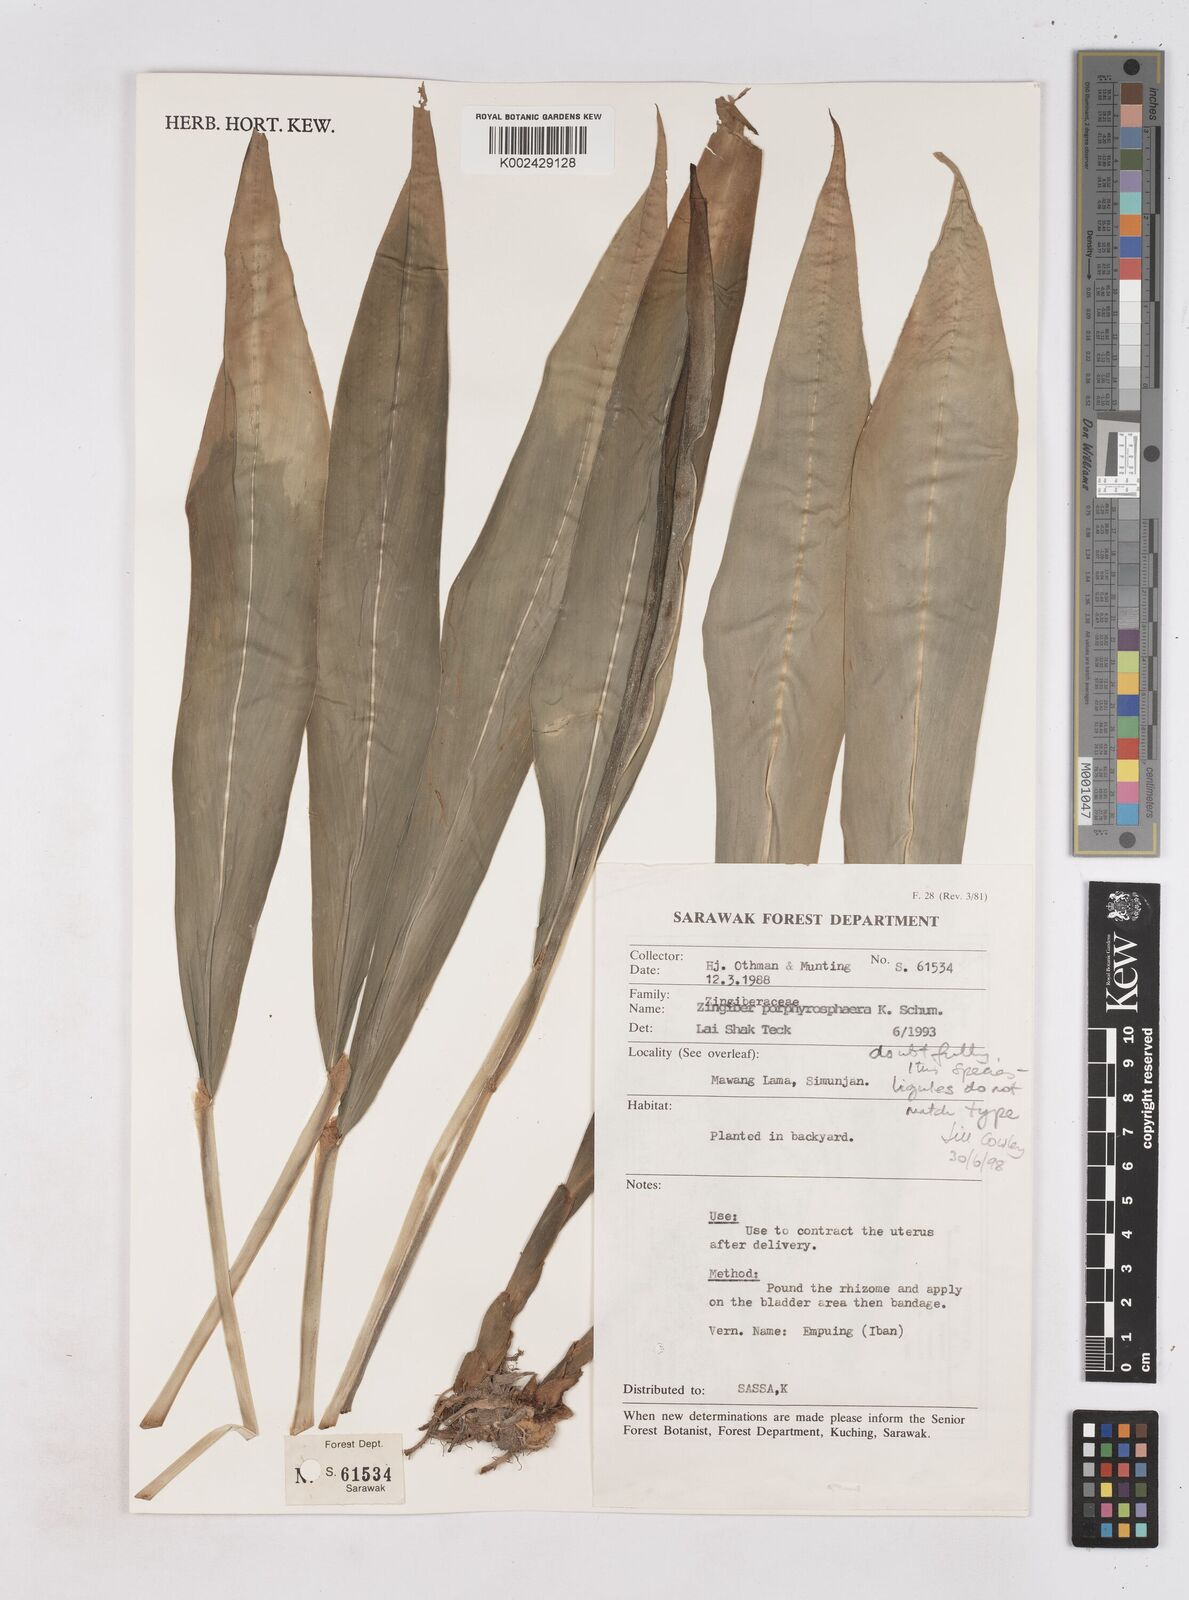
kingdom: Plantae
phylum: Tracheophyta
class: Liliopsida
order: Zingiberales
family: Zingiberaceae
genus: Zingiber
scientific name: Zingiber porphyrosphaerum
